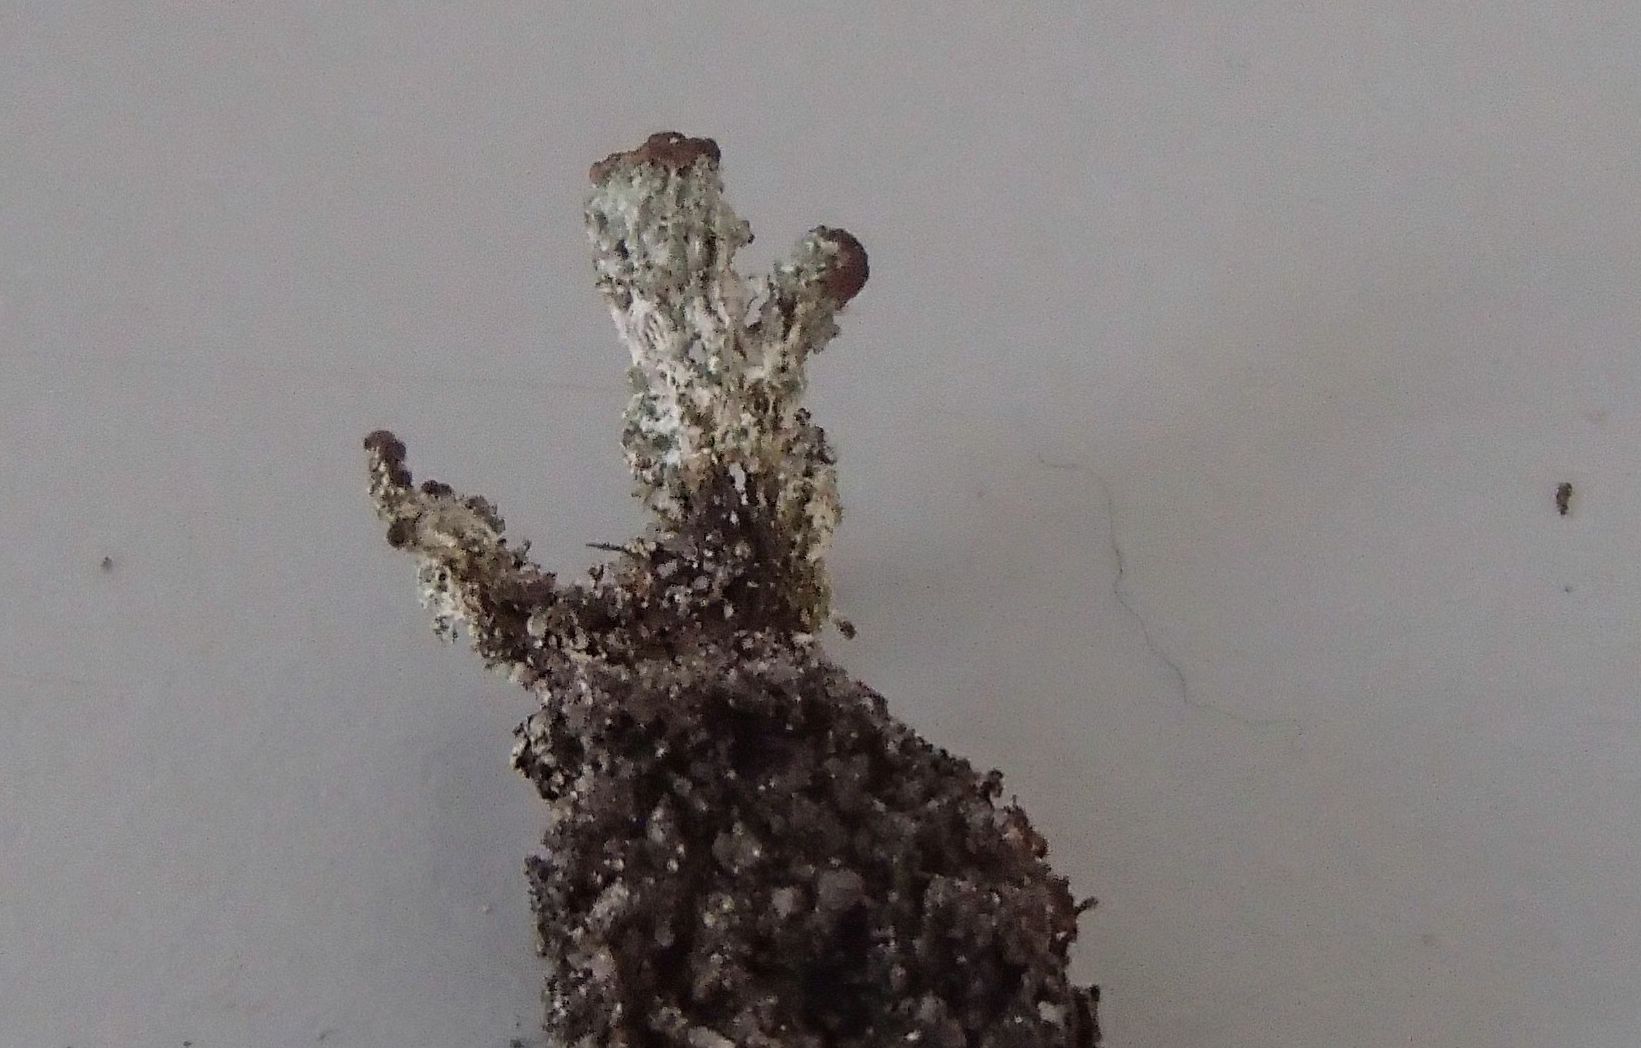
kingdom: Fungi
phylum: Ascomycota
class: Lecanoromycetes
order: Lecanorales
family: Cladoniaceae
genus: Cladonia
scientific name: Cladonia
